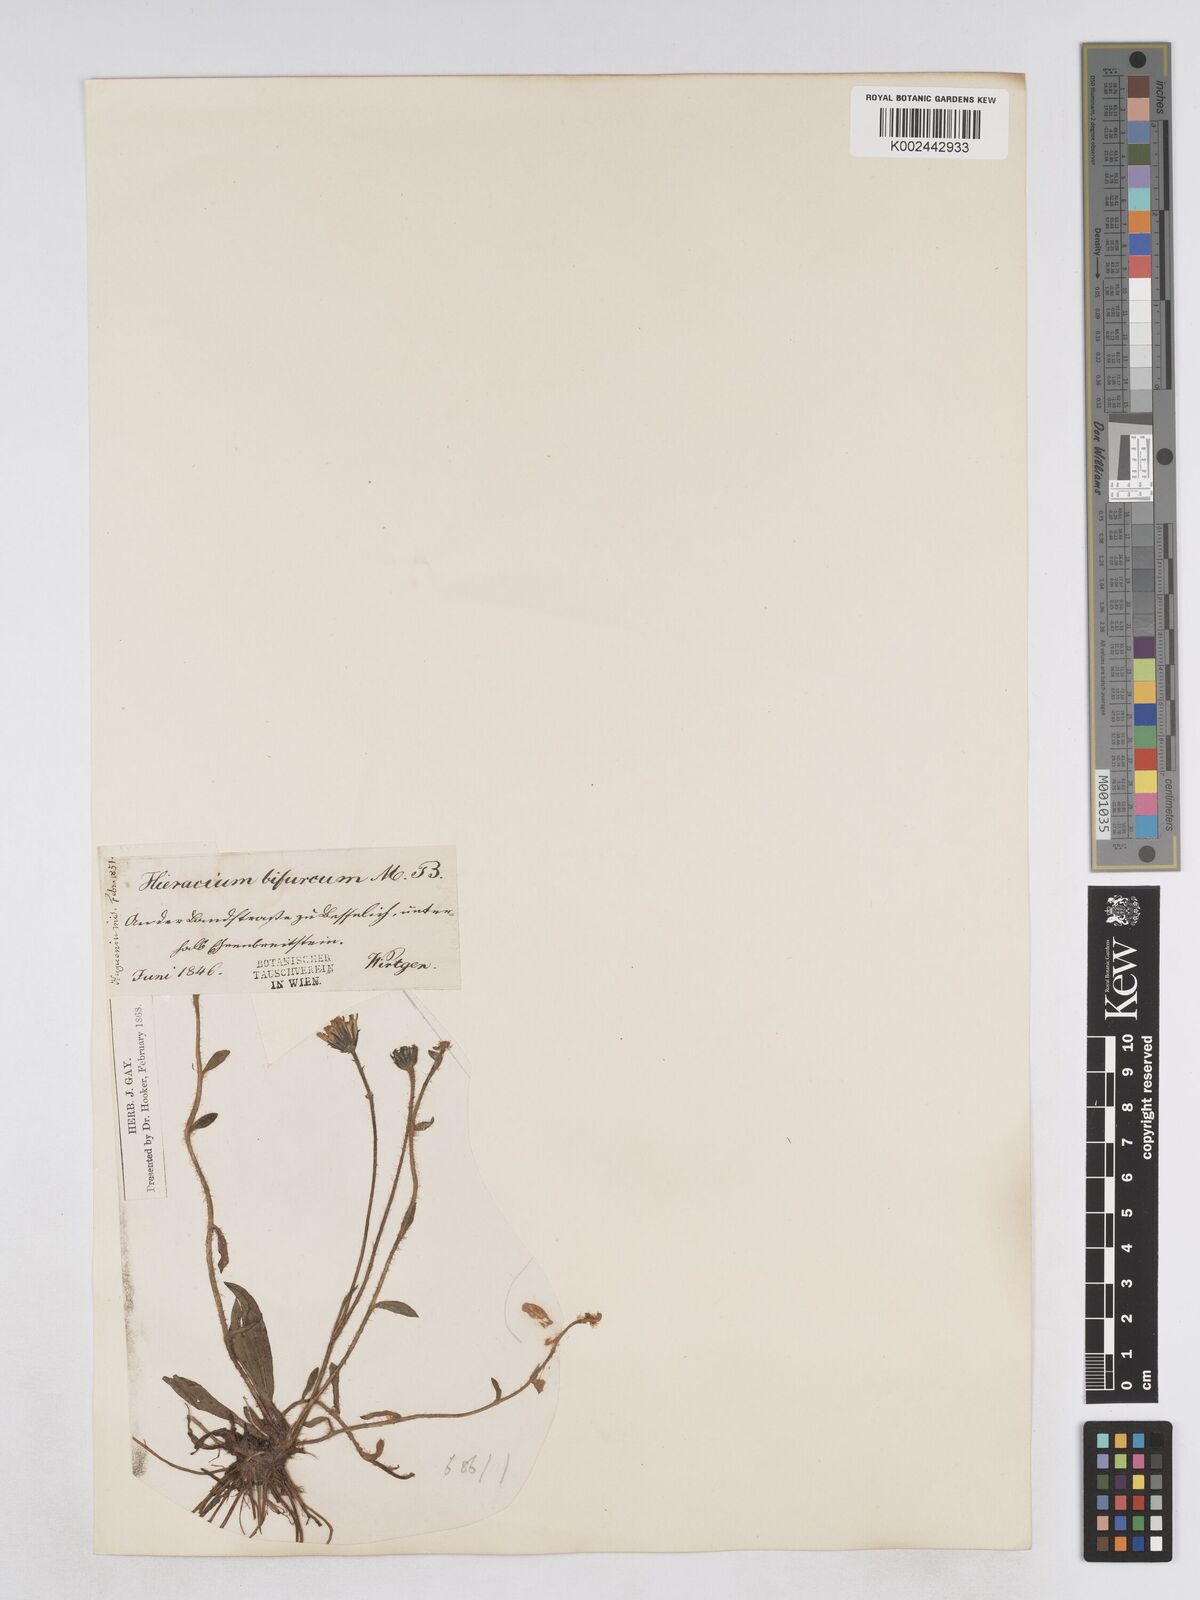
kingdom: Plantae
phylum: Tracheophyta
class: Magnoliopsida
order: Asterales
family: Asteraceae
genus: Pilosella
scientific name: Pilosella bifurca
